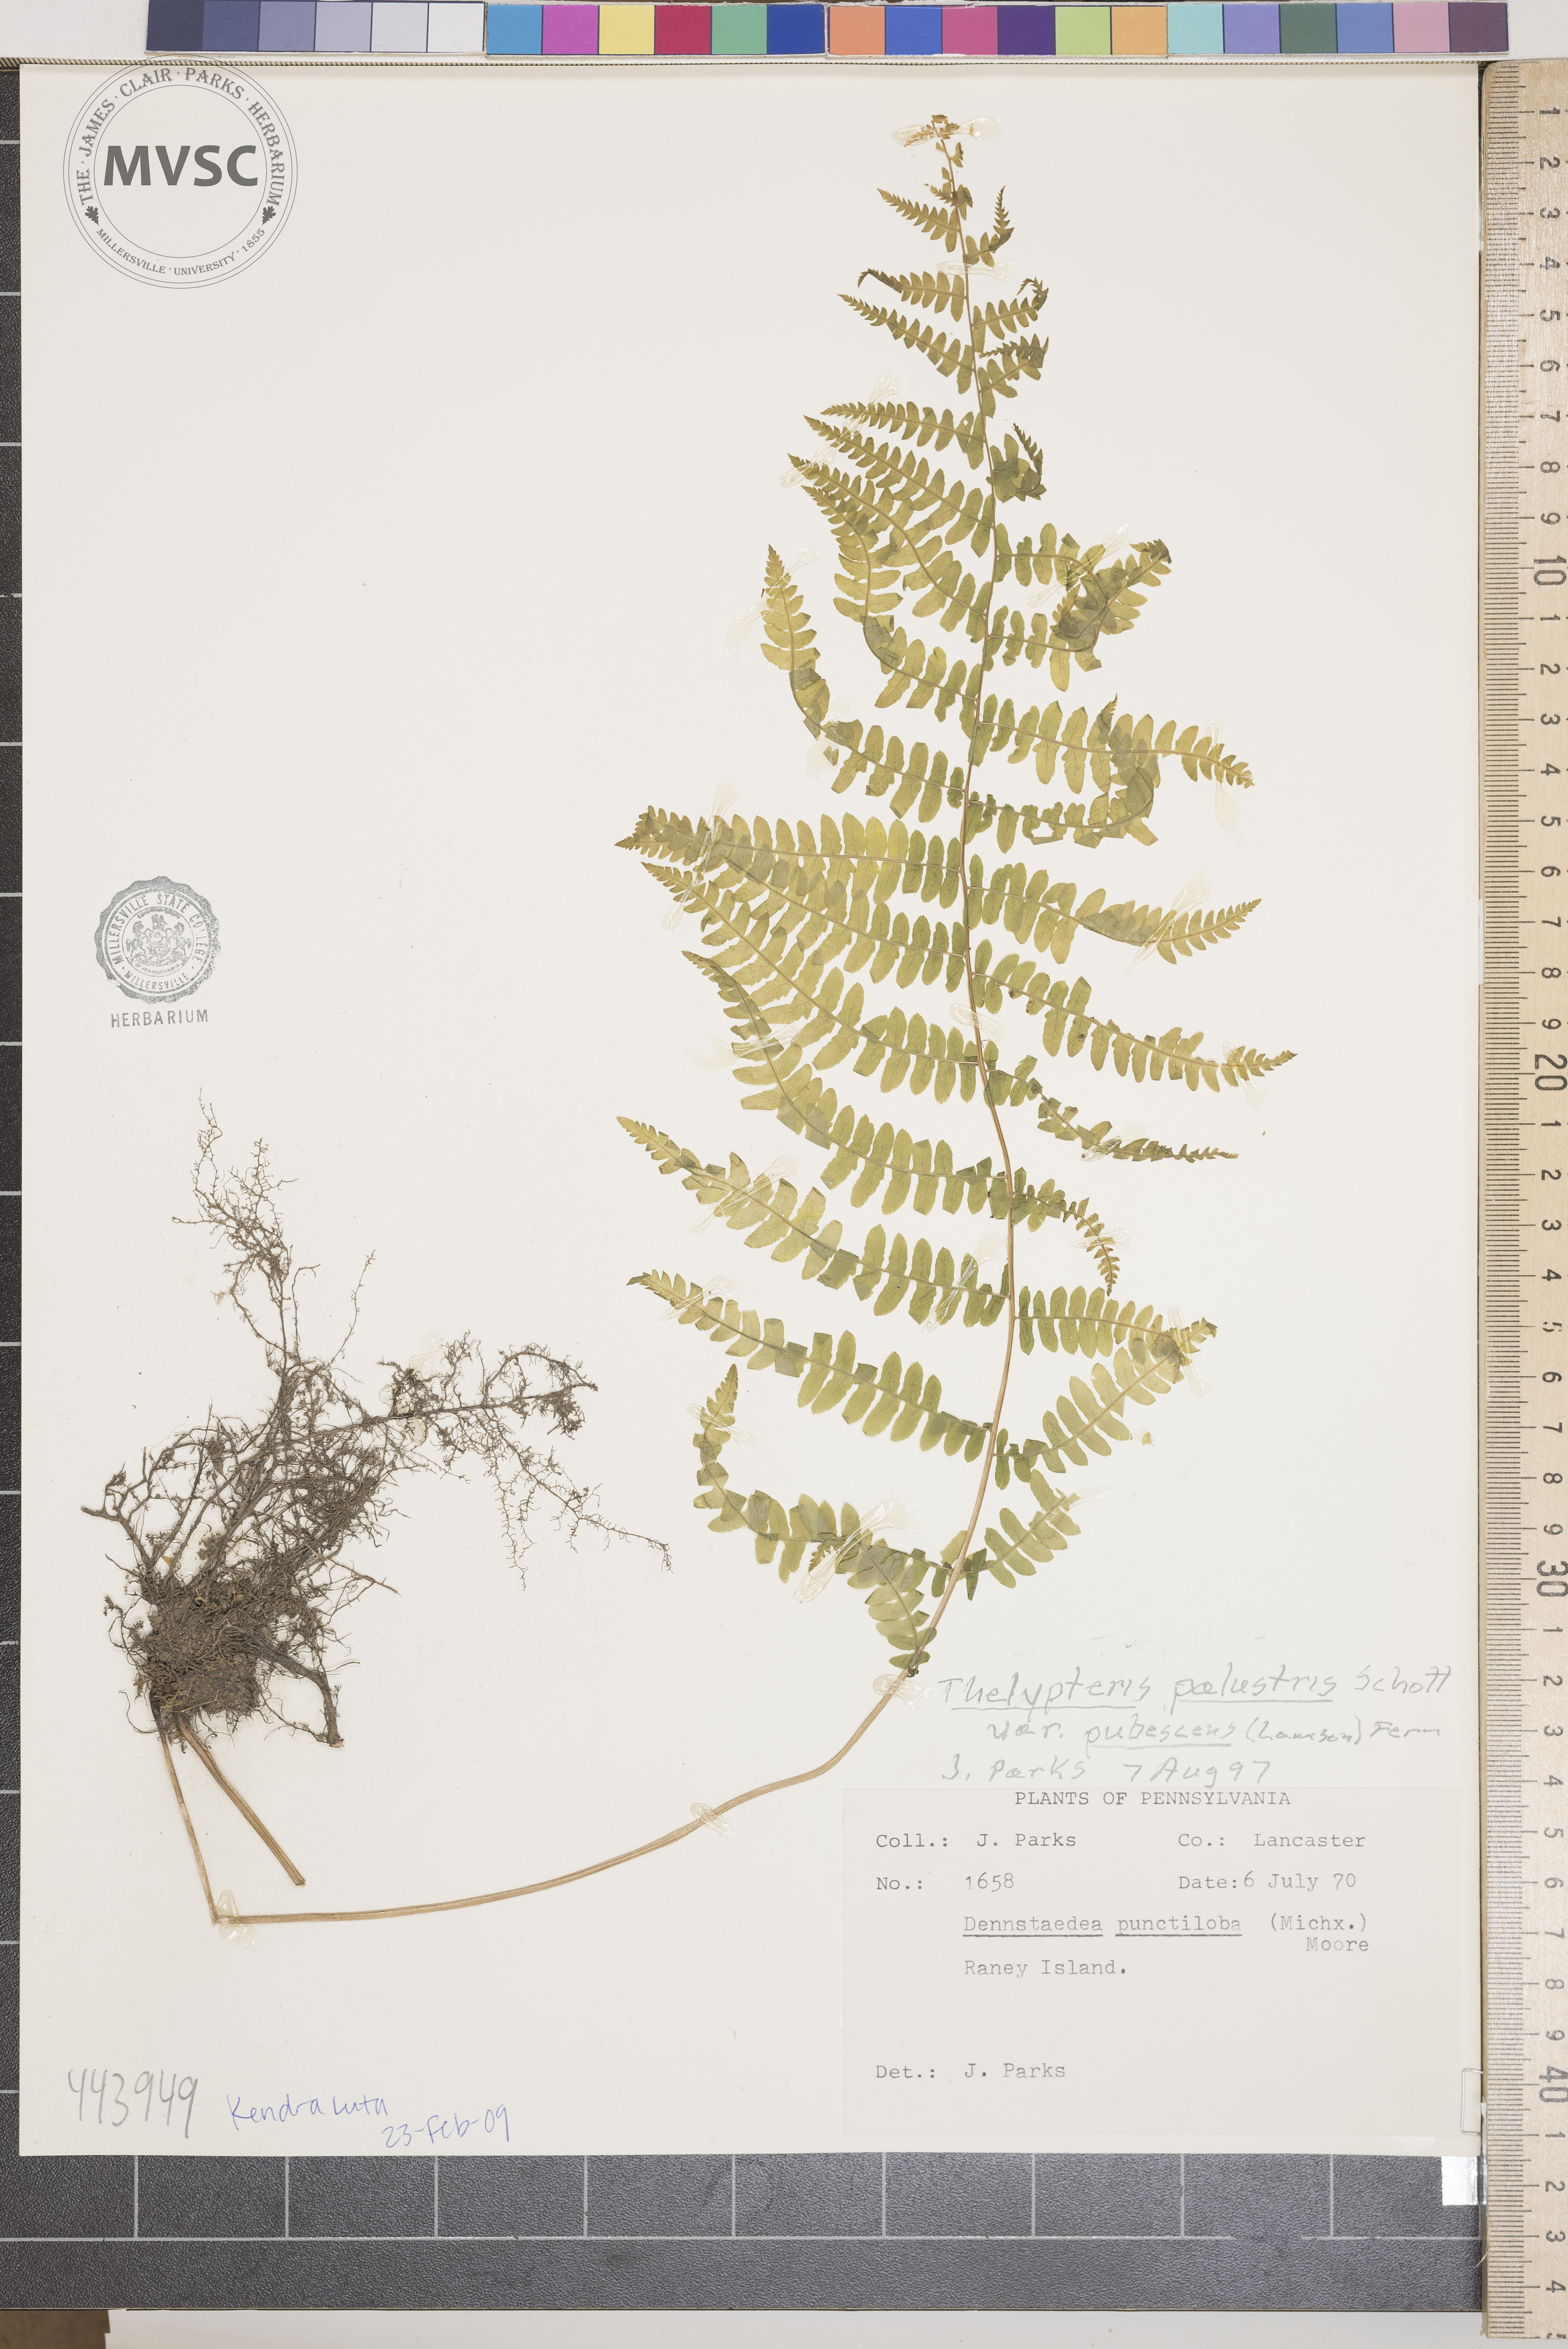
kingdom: Plantae
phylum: Tracheophyta
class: Polypodiopsida
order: Polypodiales
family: Thelypteridaceae
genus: Thelypteris
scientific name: Thelypteris palustris
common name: Marsh fern
